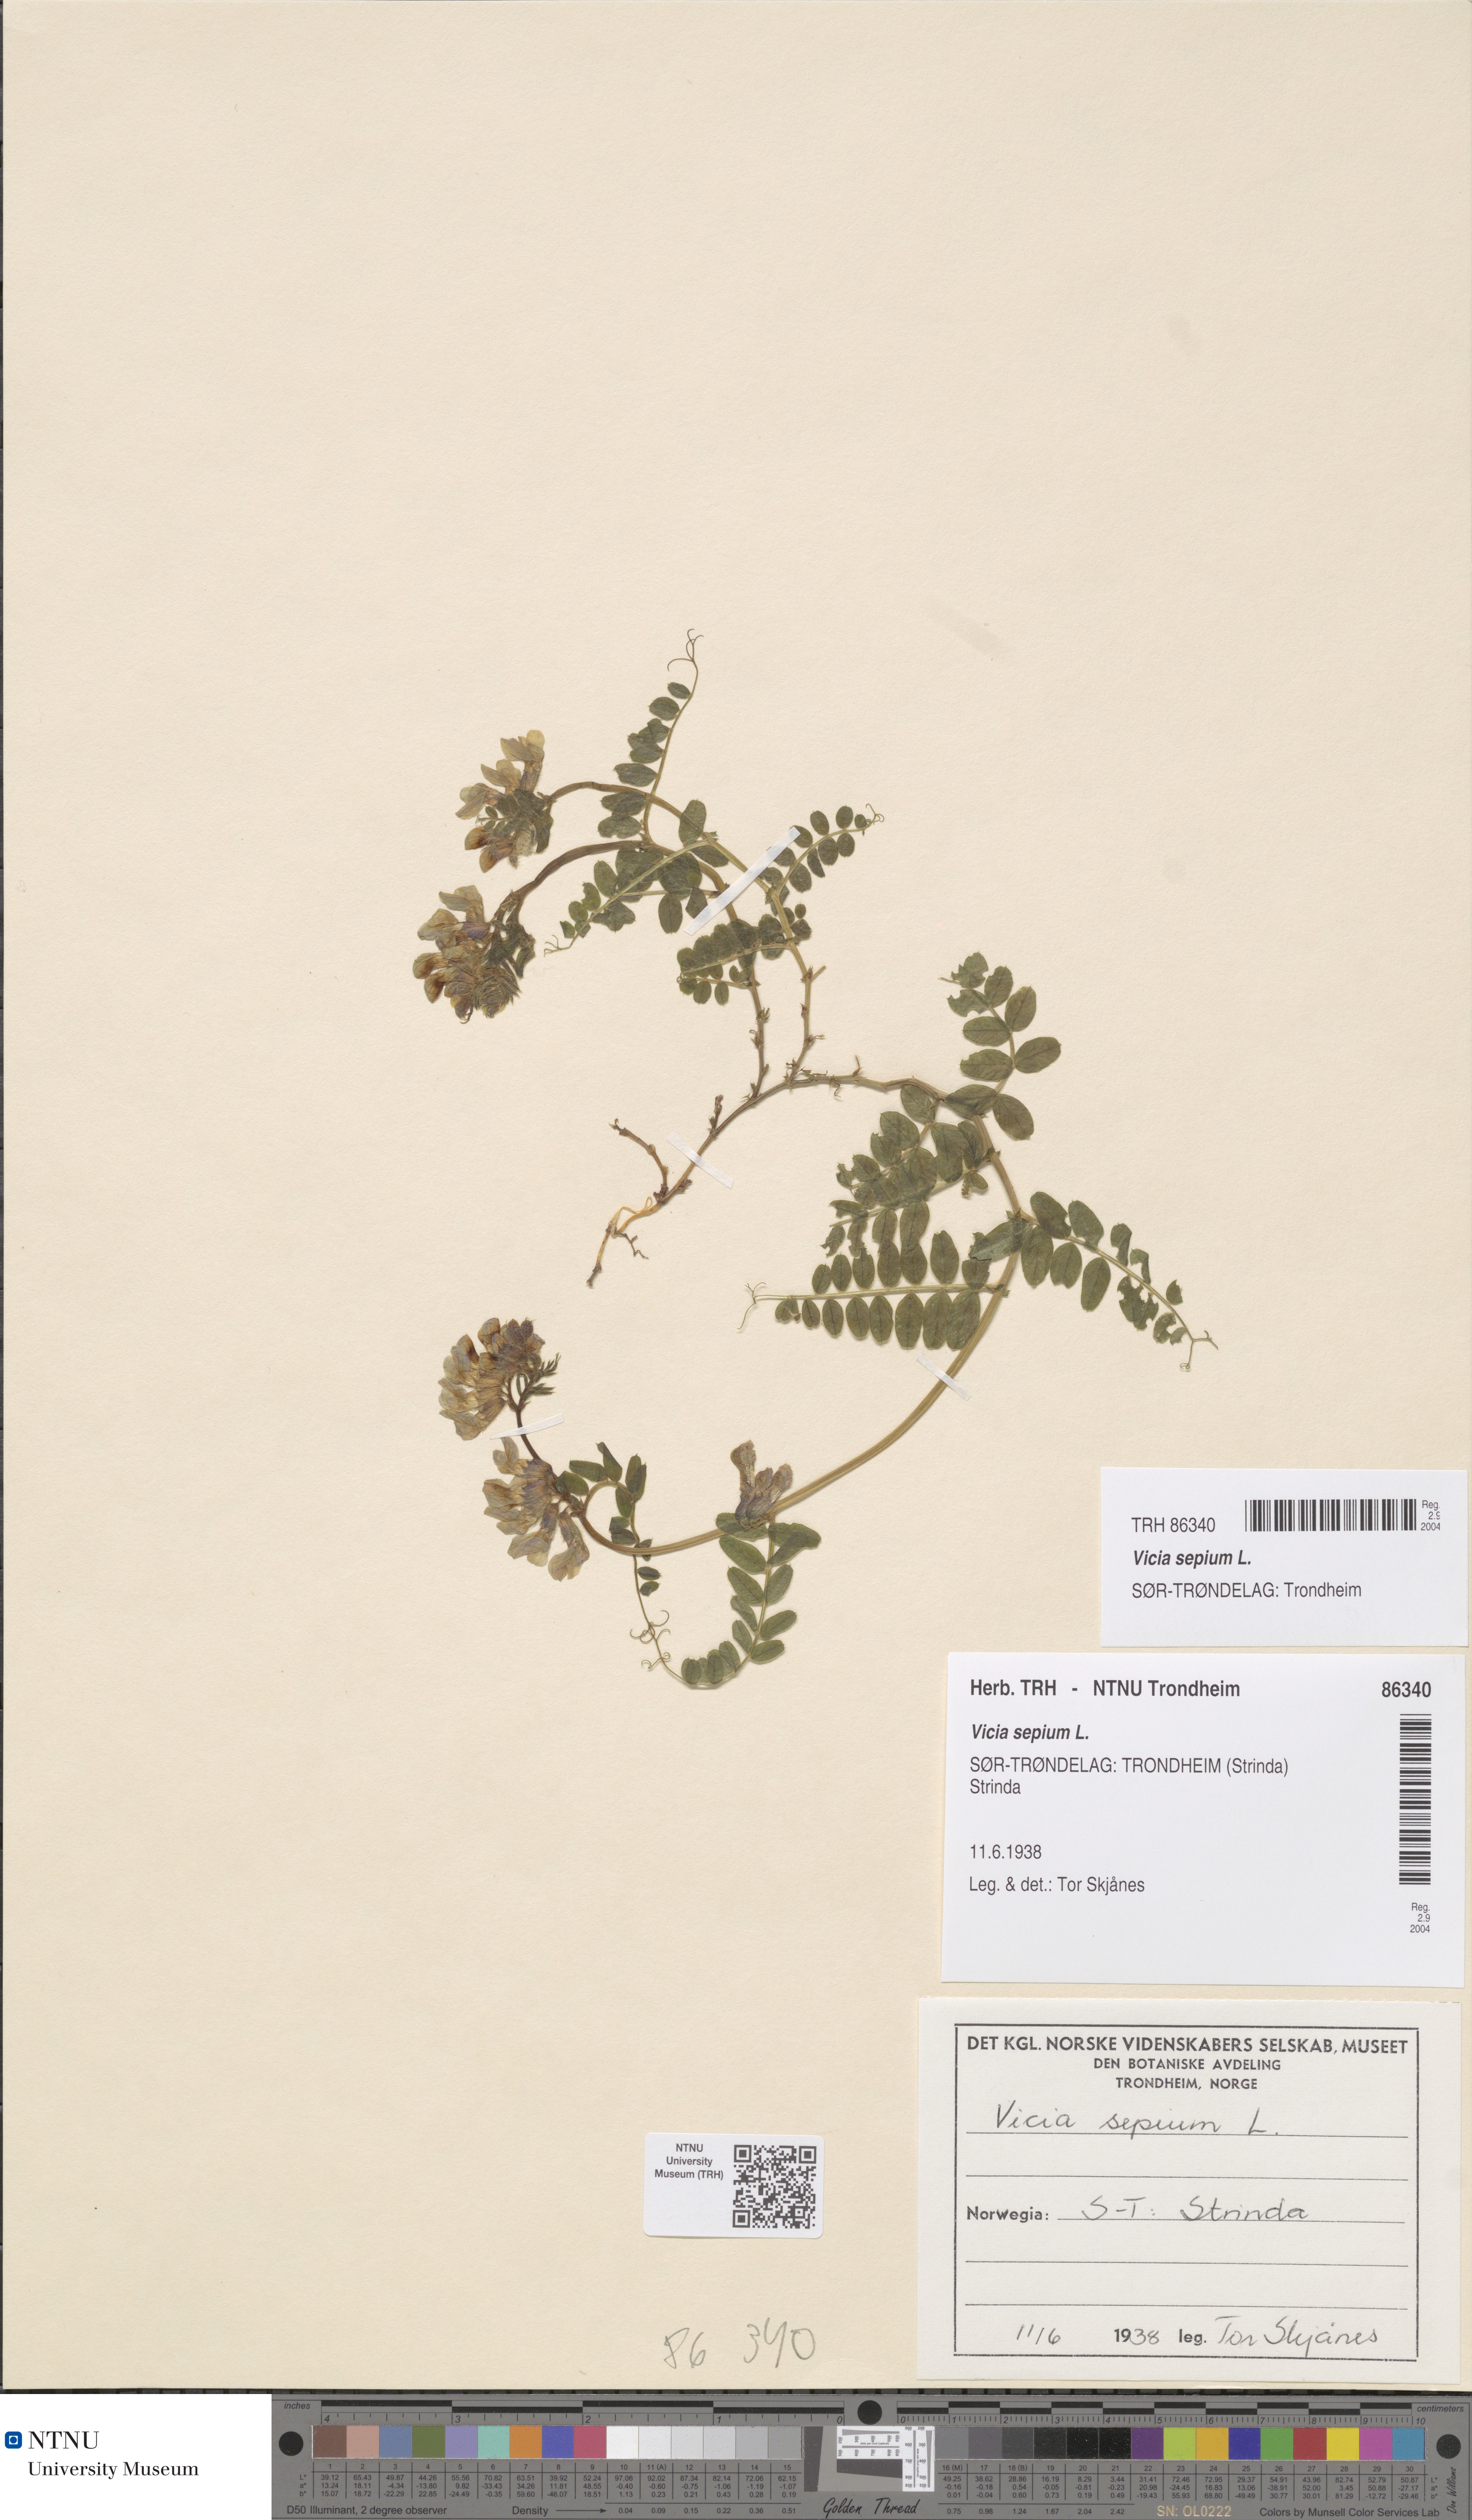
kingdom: Plantae
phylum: Tracheophyta
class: Magnoliopsida
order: Fabales
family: Fabaceae
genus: Vicia
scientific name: Vicia sepium
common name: Bush vetch
